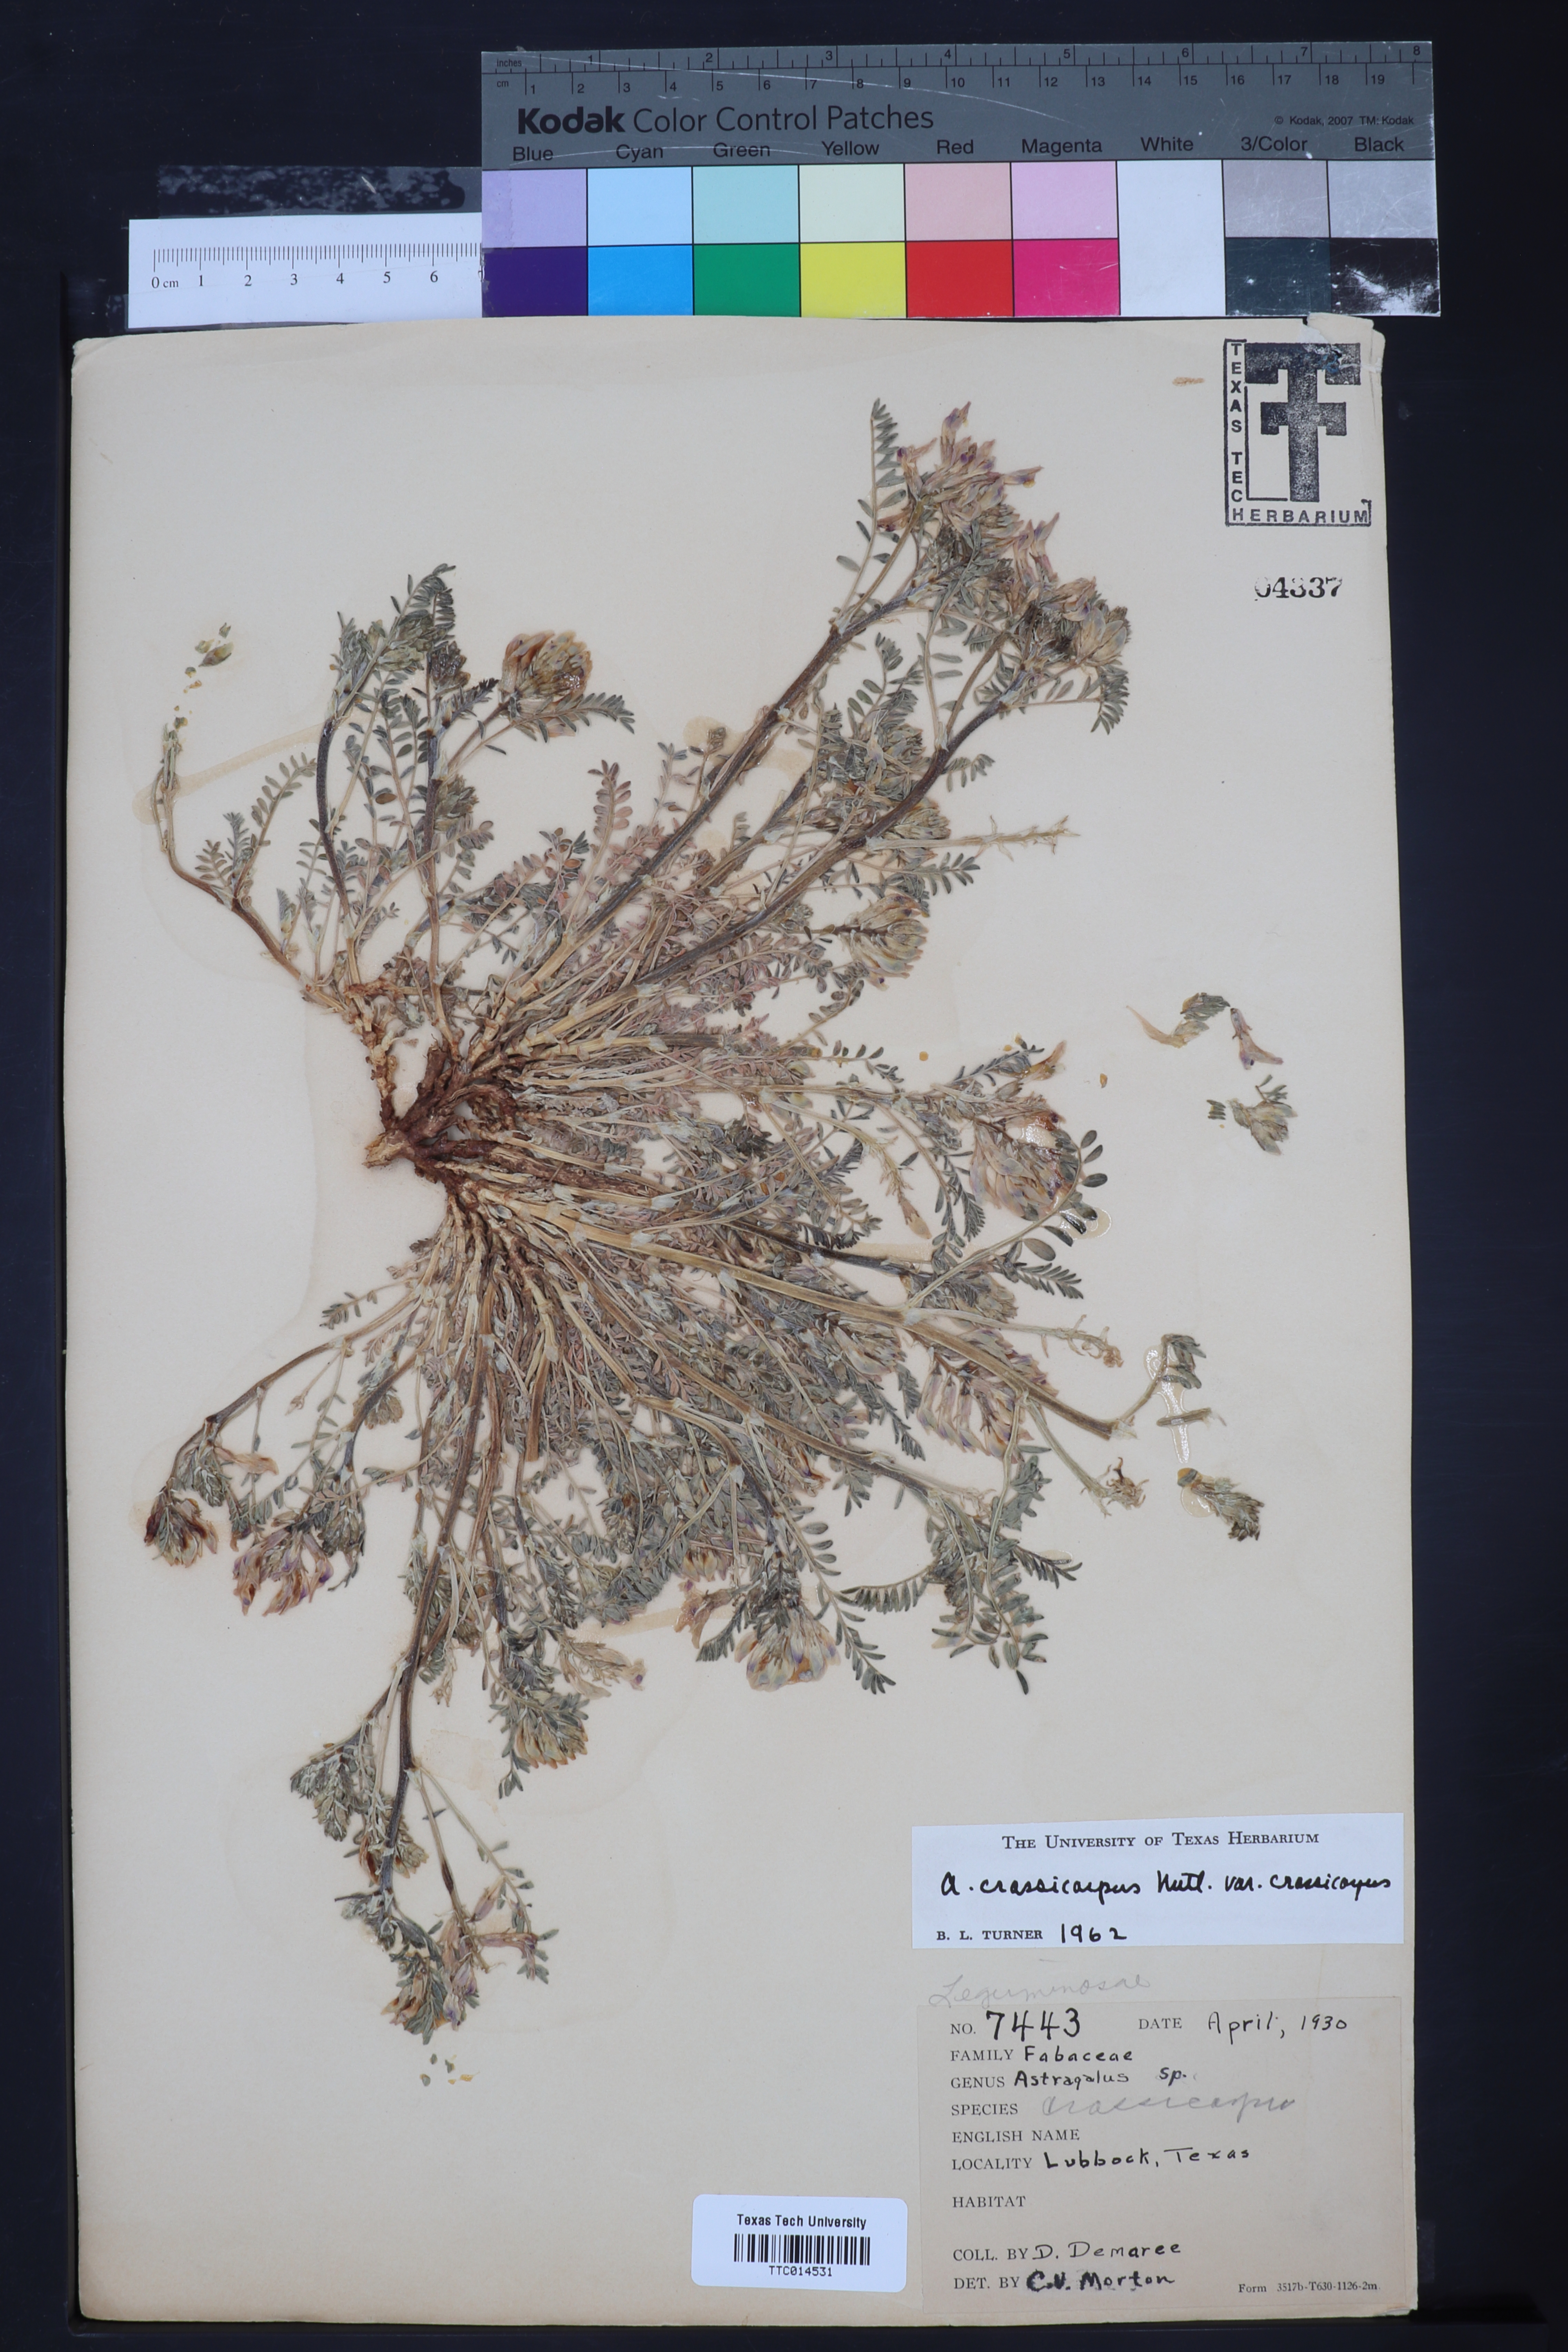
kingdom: Plantae
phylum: Tracheophyta
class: Magnoliopsida
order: Fabales
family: Fabaceae
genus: Astragalus
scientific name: Astragalus crassicarpus
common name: Ground-plum milk-vetch
